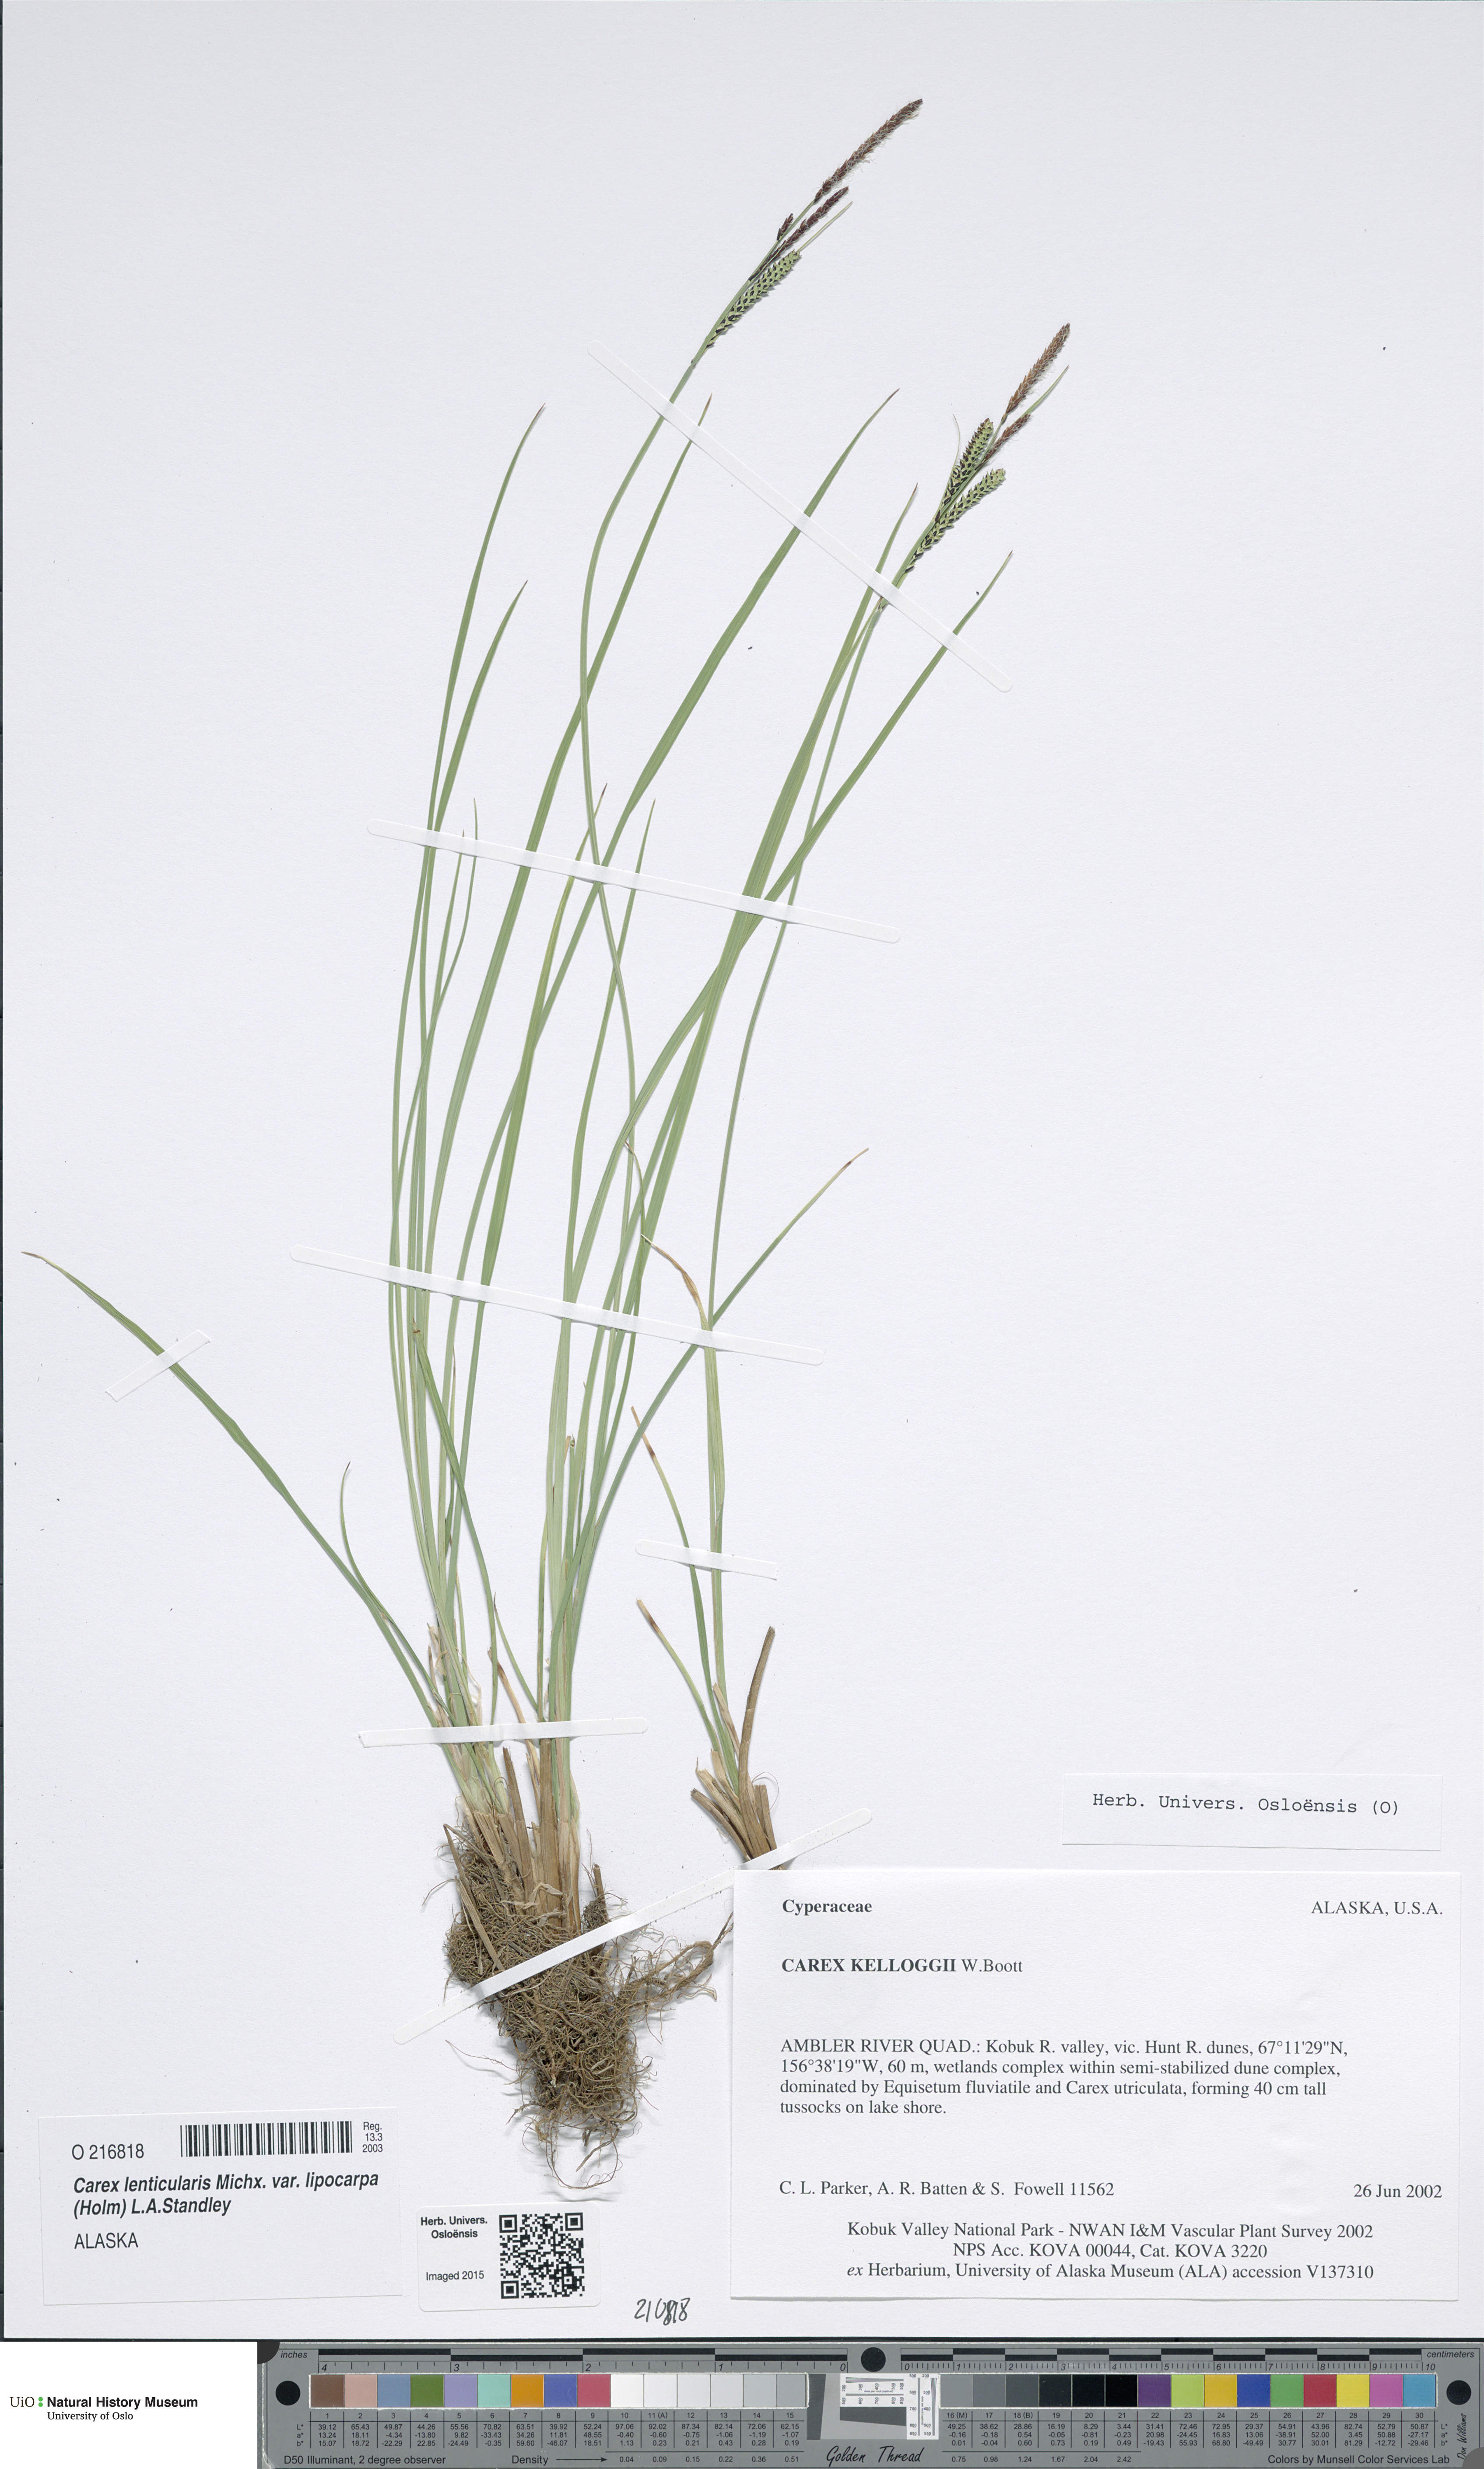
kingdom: Plantae
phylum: Tracheophyta
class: Liliopsida
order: Poales
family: Cyperaceae
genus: Carex
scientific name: Carex kelloggii
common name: Kellogg's sedge
